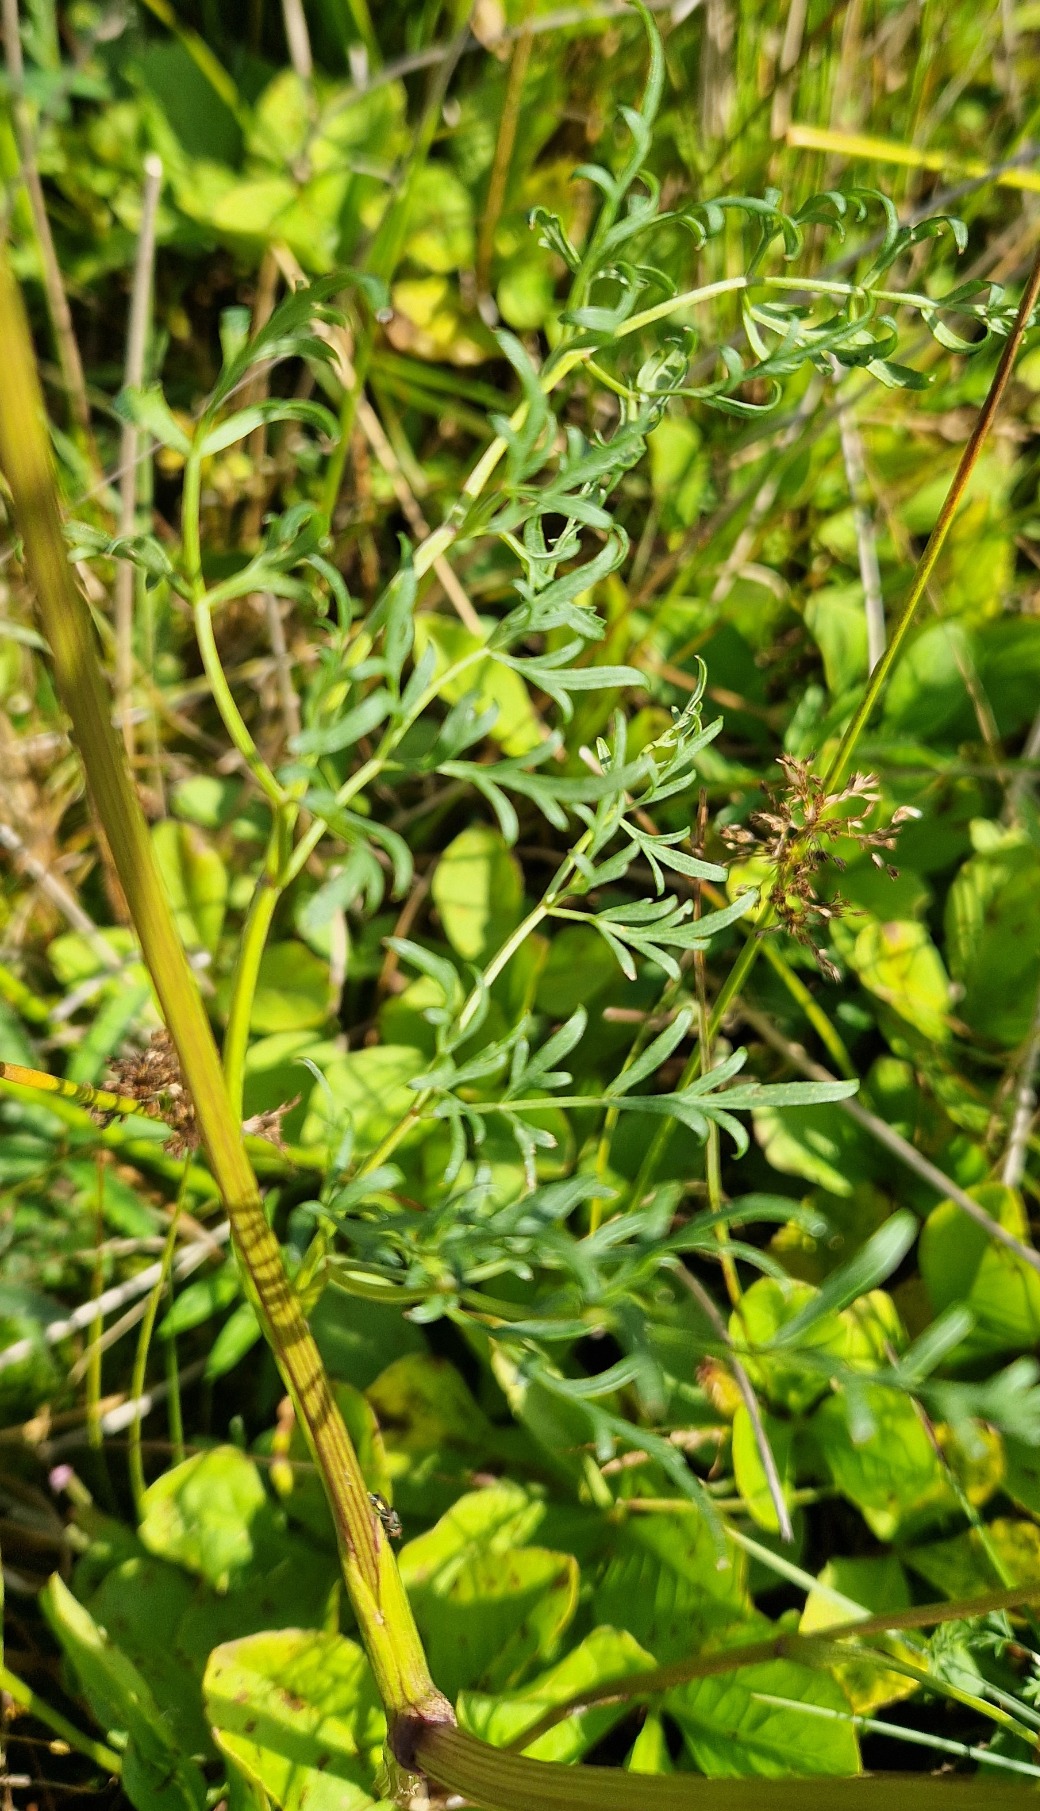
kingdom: Plantae
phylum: Tracheophyta
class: Magnoliopsida
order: Apiales
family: Apiaceae
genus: Thysselinum
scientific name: Thysselinum palustre
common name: Kær-svovlrod
